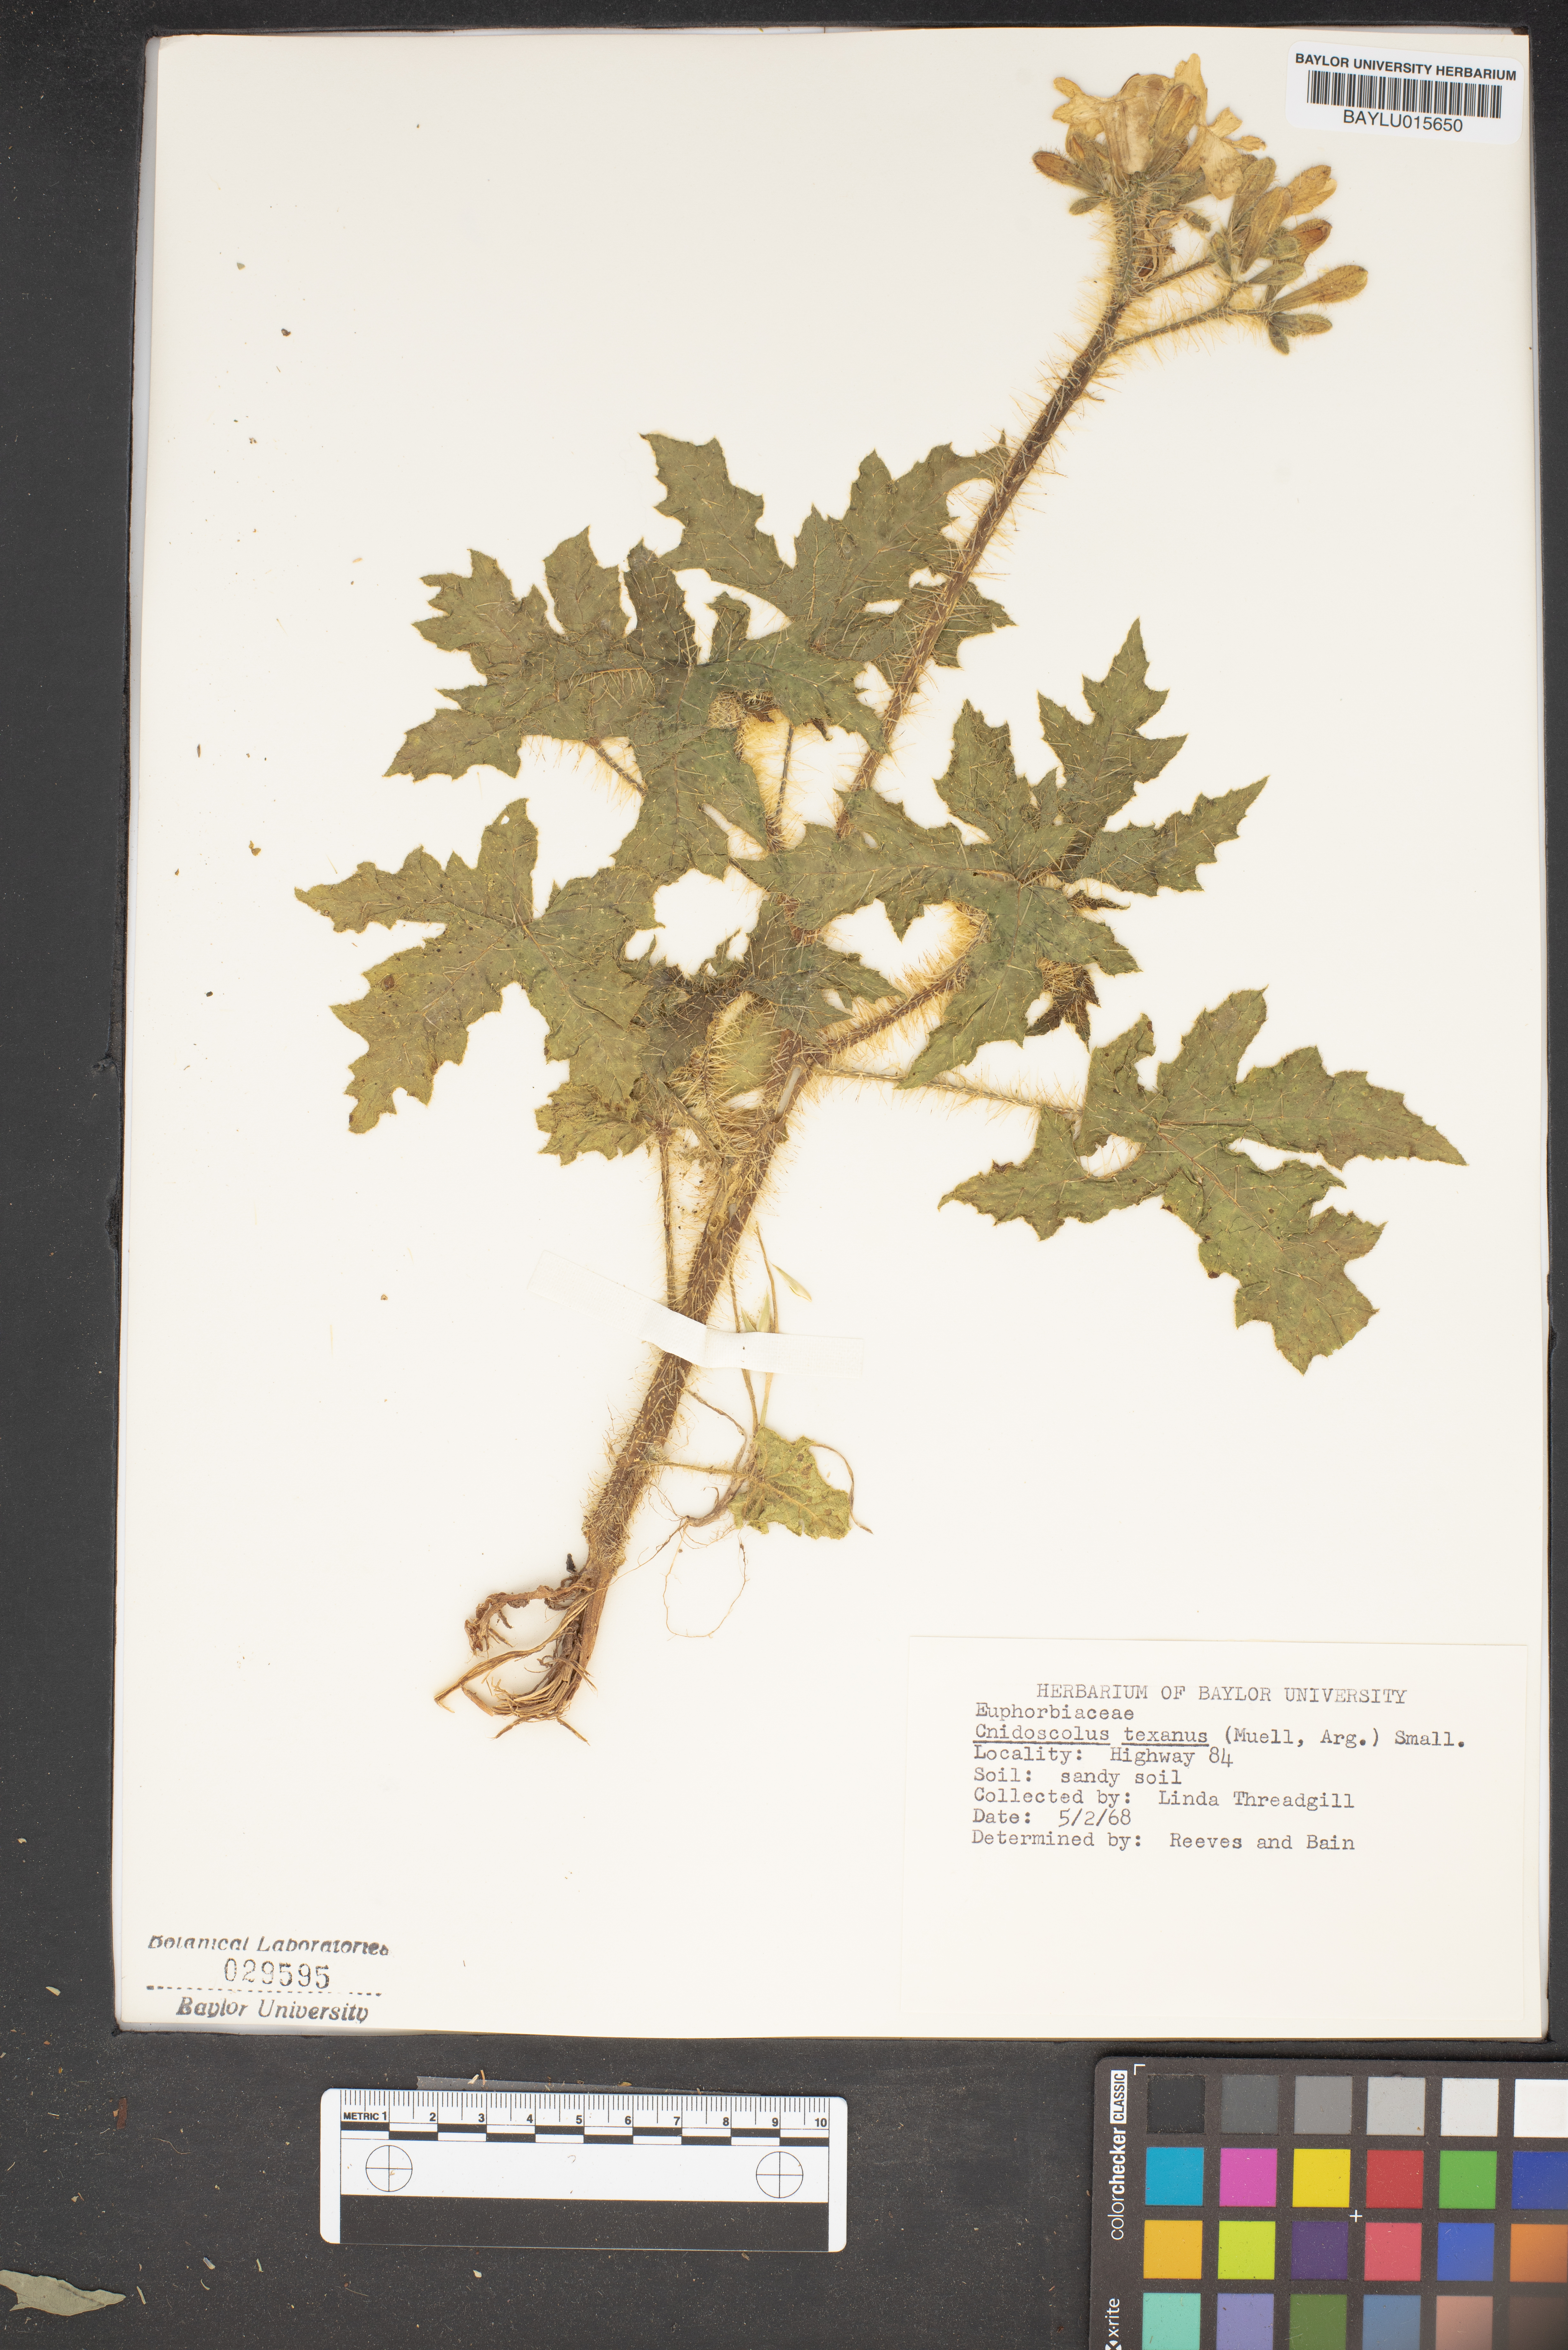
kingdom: Plantae
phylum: Tracheophyta
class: Magnoliopsida
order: Malpighiales
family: Euphorbiaceae
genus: Cnidoscolus
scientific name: Cnidoscolus texanus
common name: Texas bull-nettle
